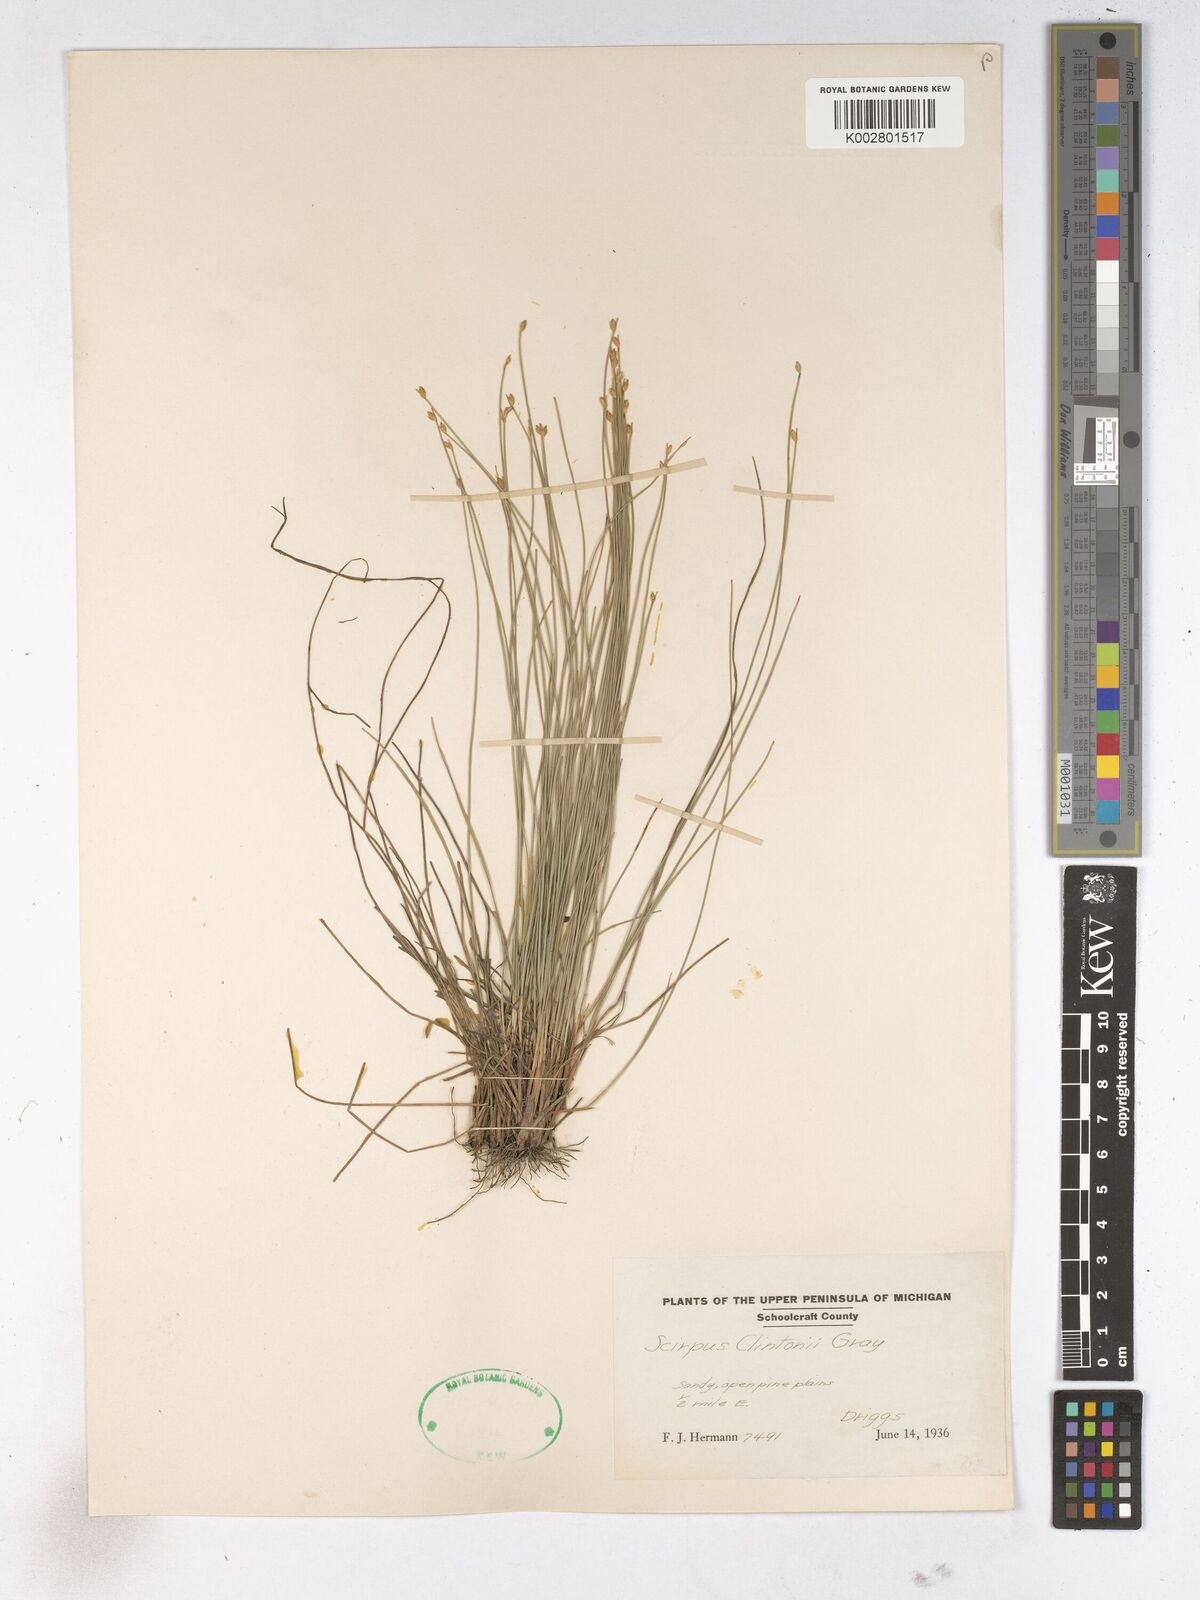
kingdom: Plantae
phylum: Tracheophyta
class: Liliopsida
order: Poales
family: Cyperaceae
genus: Trichophorum
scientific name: Trichophorum clintonii
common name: Clinton's bulrush
